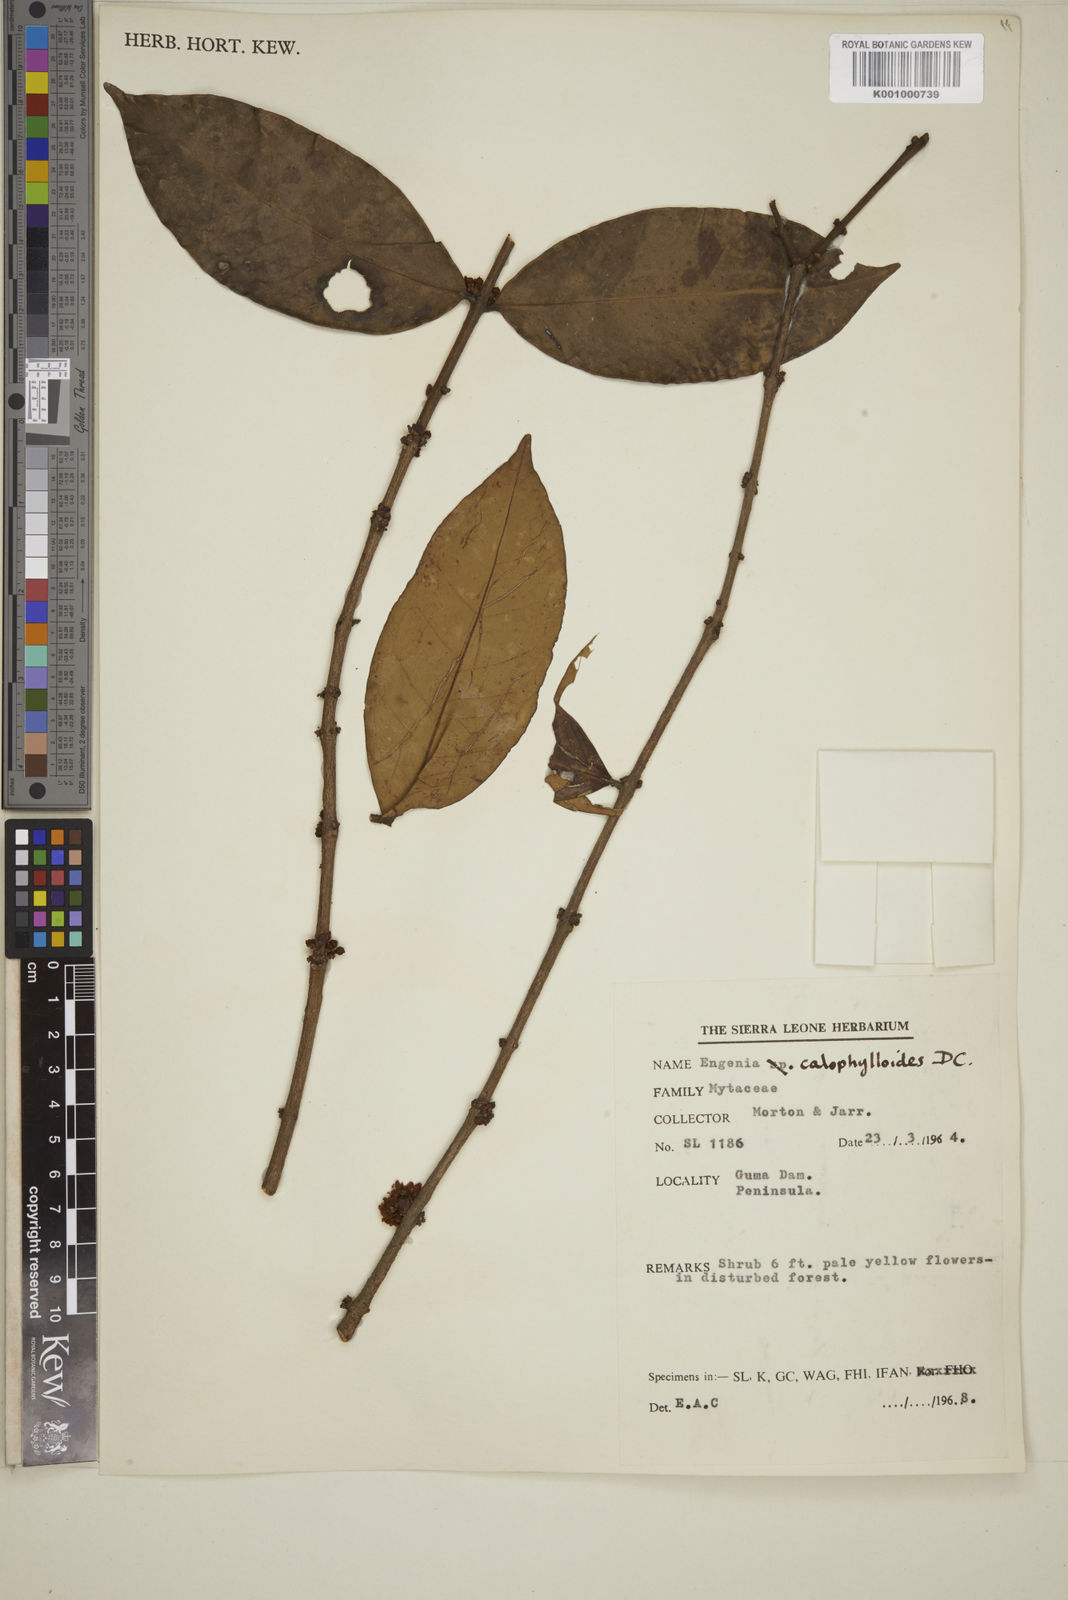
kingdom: Plantae
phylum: Tracheophyta
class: Magnoliopsida
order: Myrtales
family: Myrtaceae
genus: Eugenia
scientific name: Eugenia calophylloides
